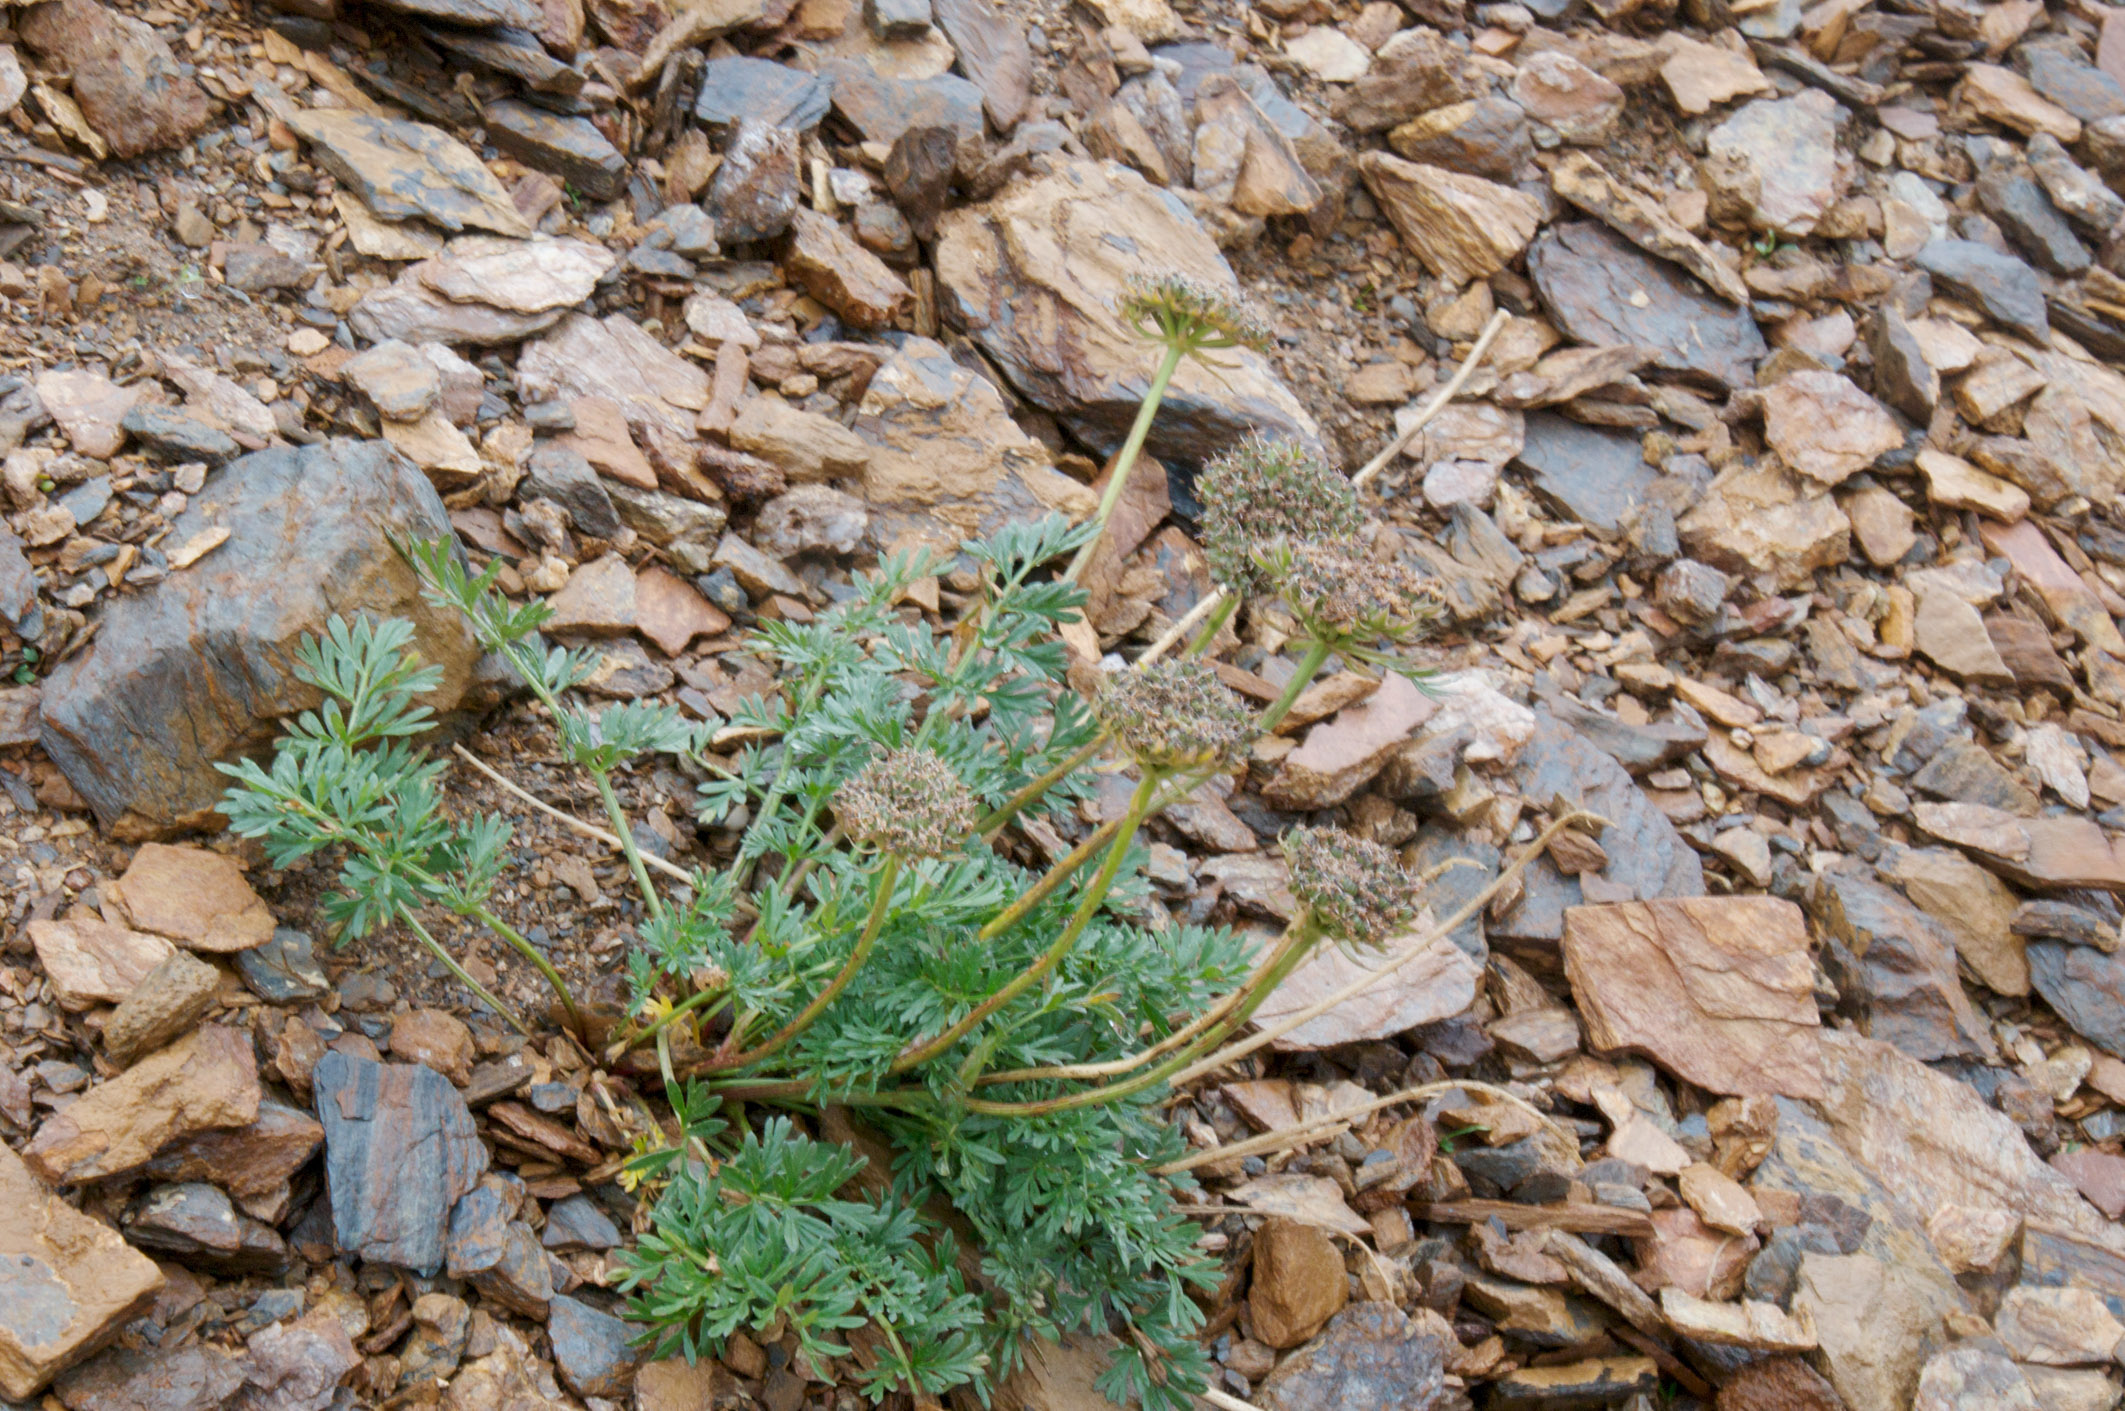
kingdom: Plantae
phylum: Tracheophyta
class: Magnoliopsida
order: Apiales
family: Apiaceae
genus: Pachypleurum
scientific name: Pachypleurum mutellinoides
